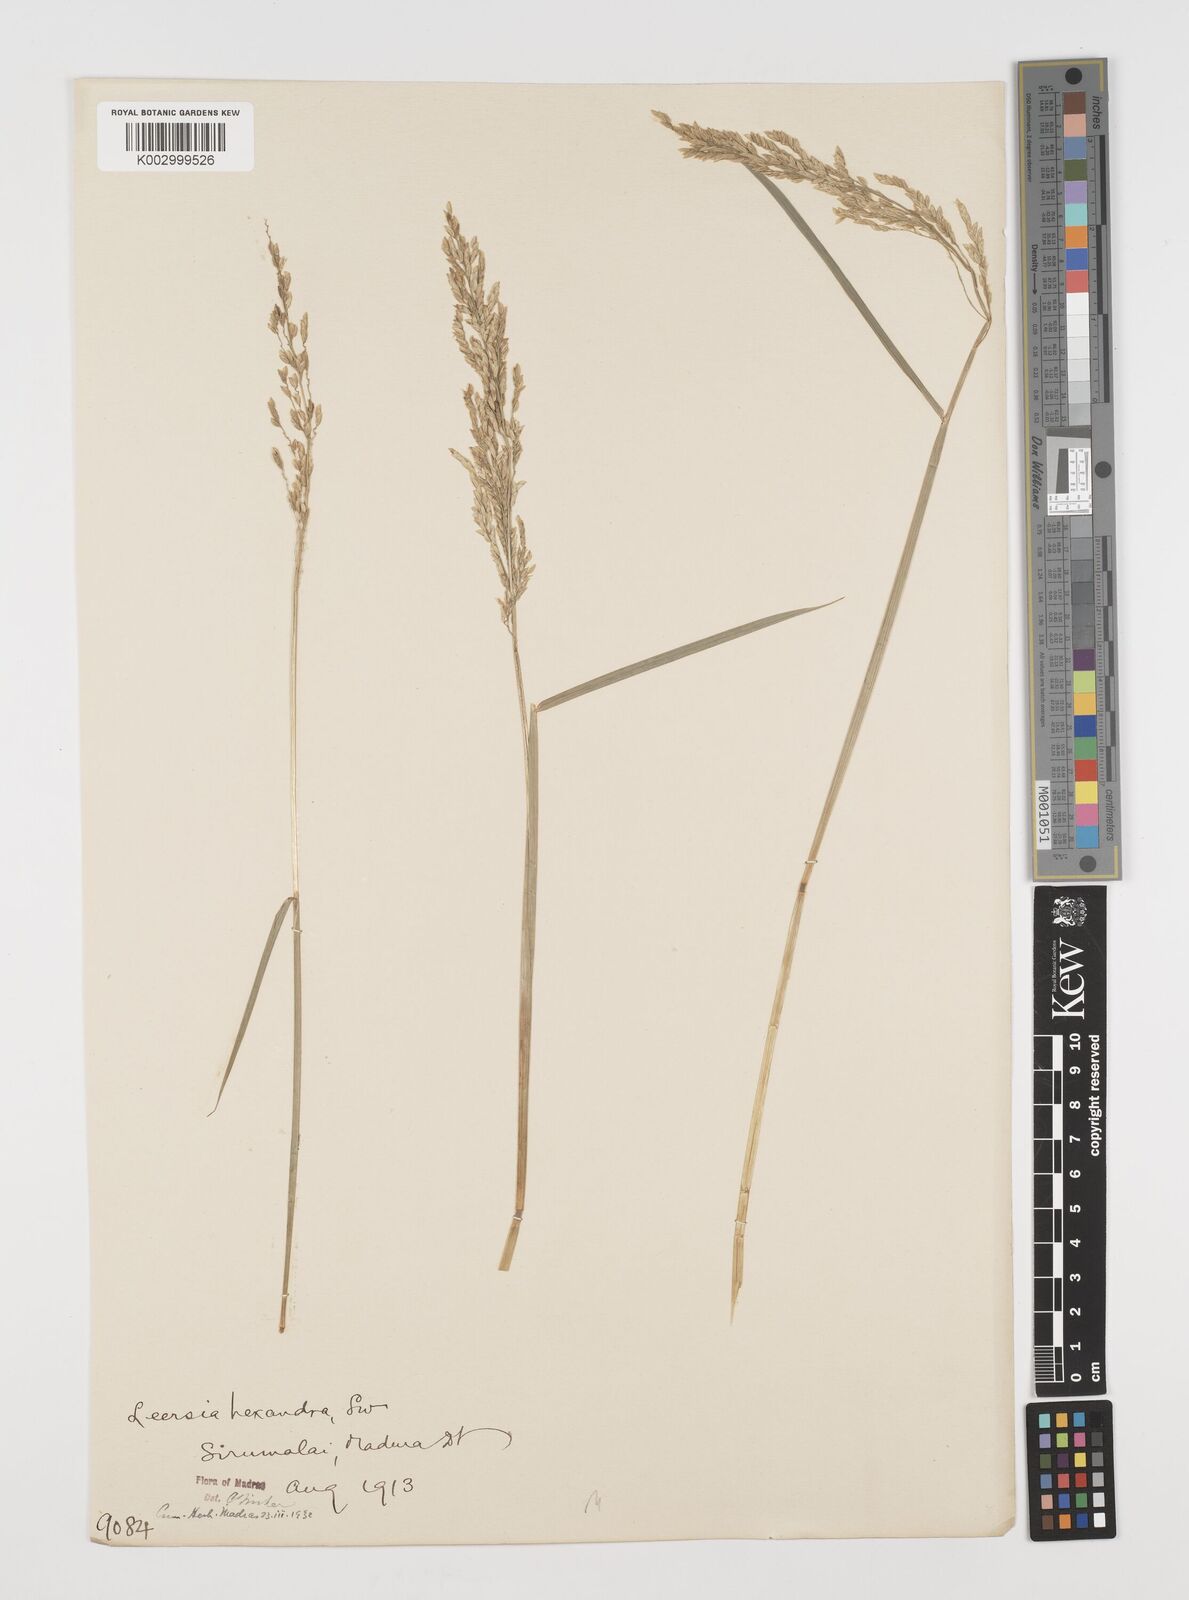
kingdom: Plantae
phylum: Tracheophyta
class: Liliopsida
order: Poales
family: Poaceae
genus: Leersia
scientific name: Leersia hexandra
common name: Southern cut grass
